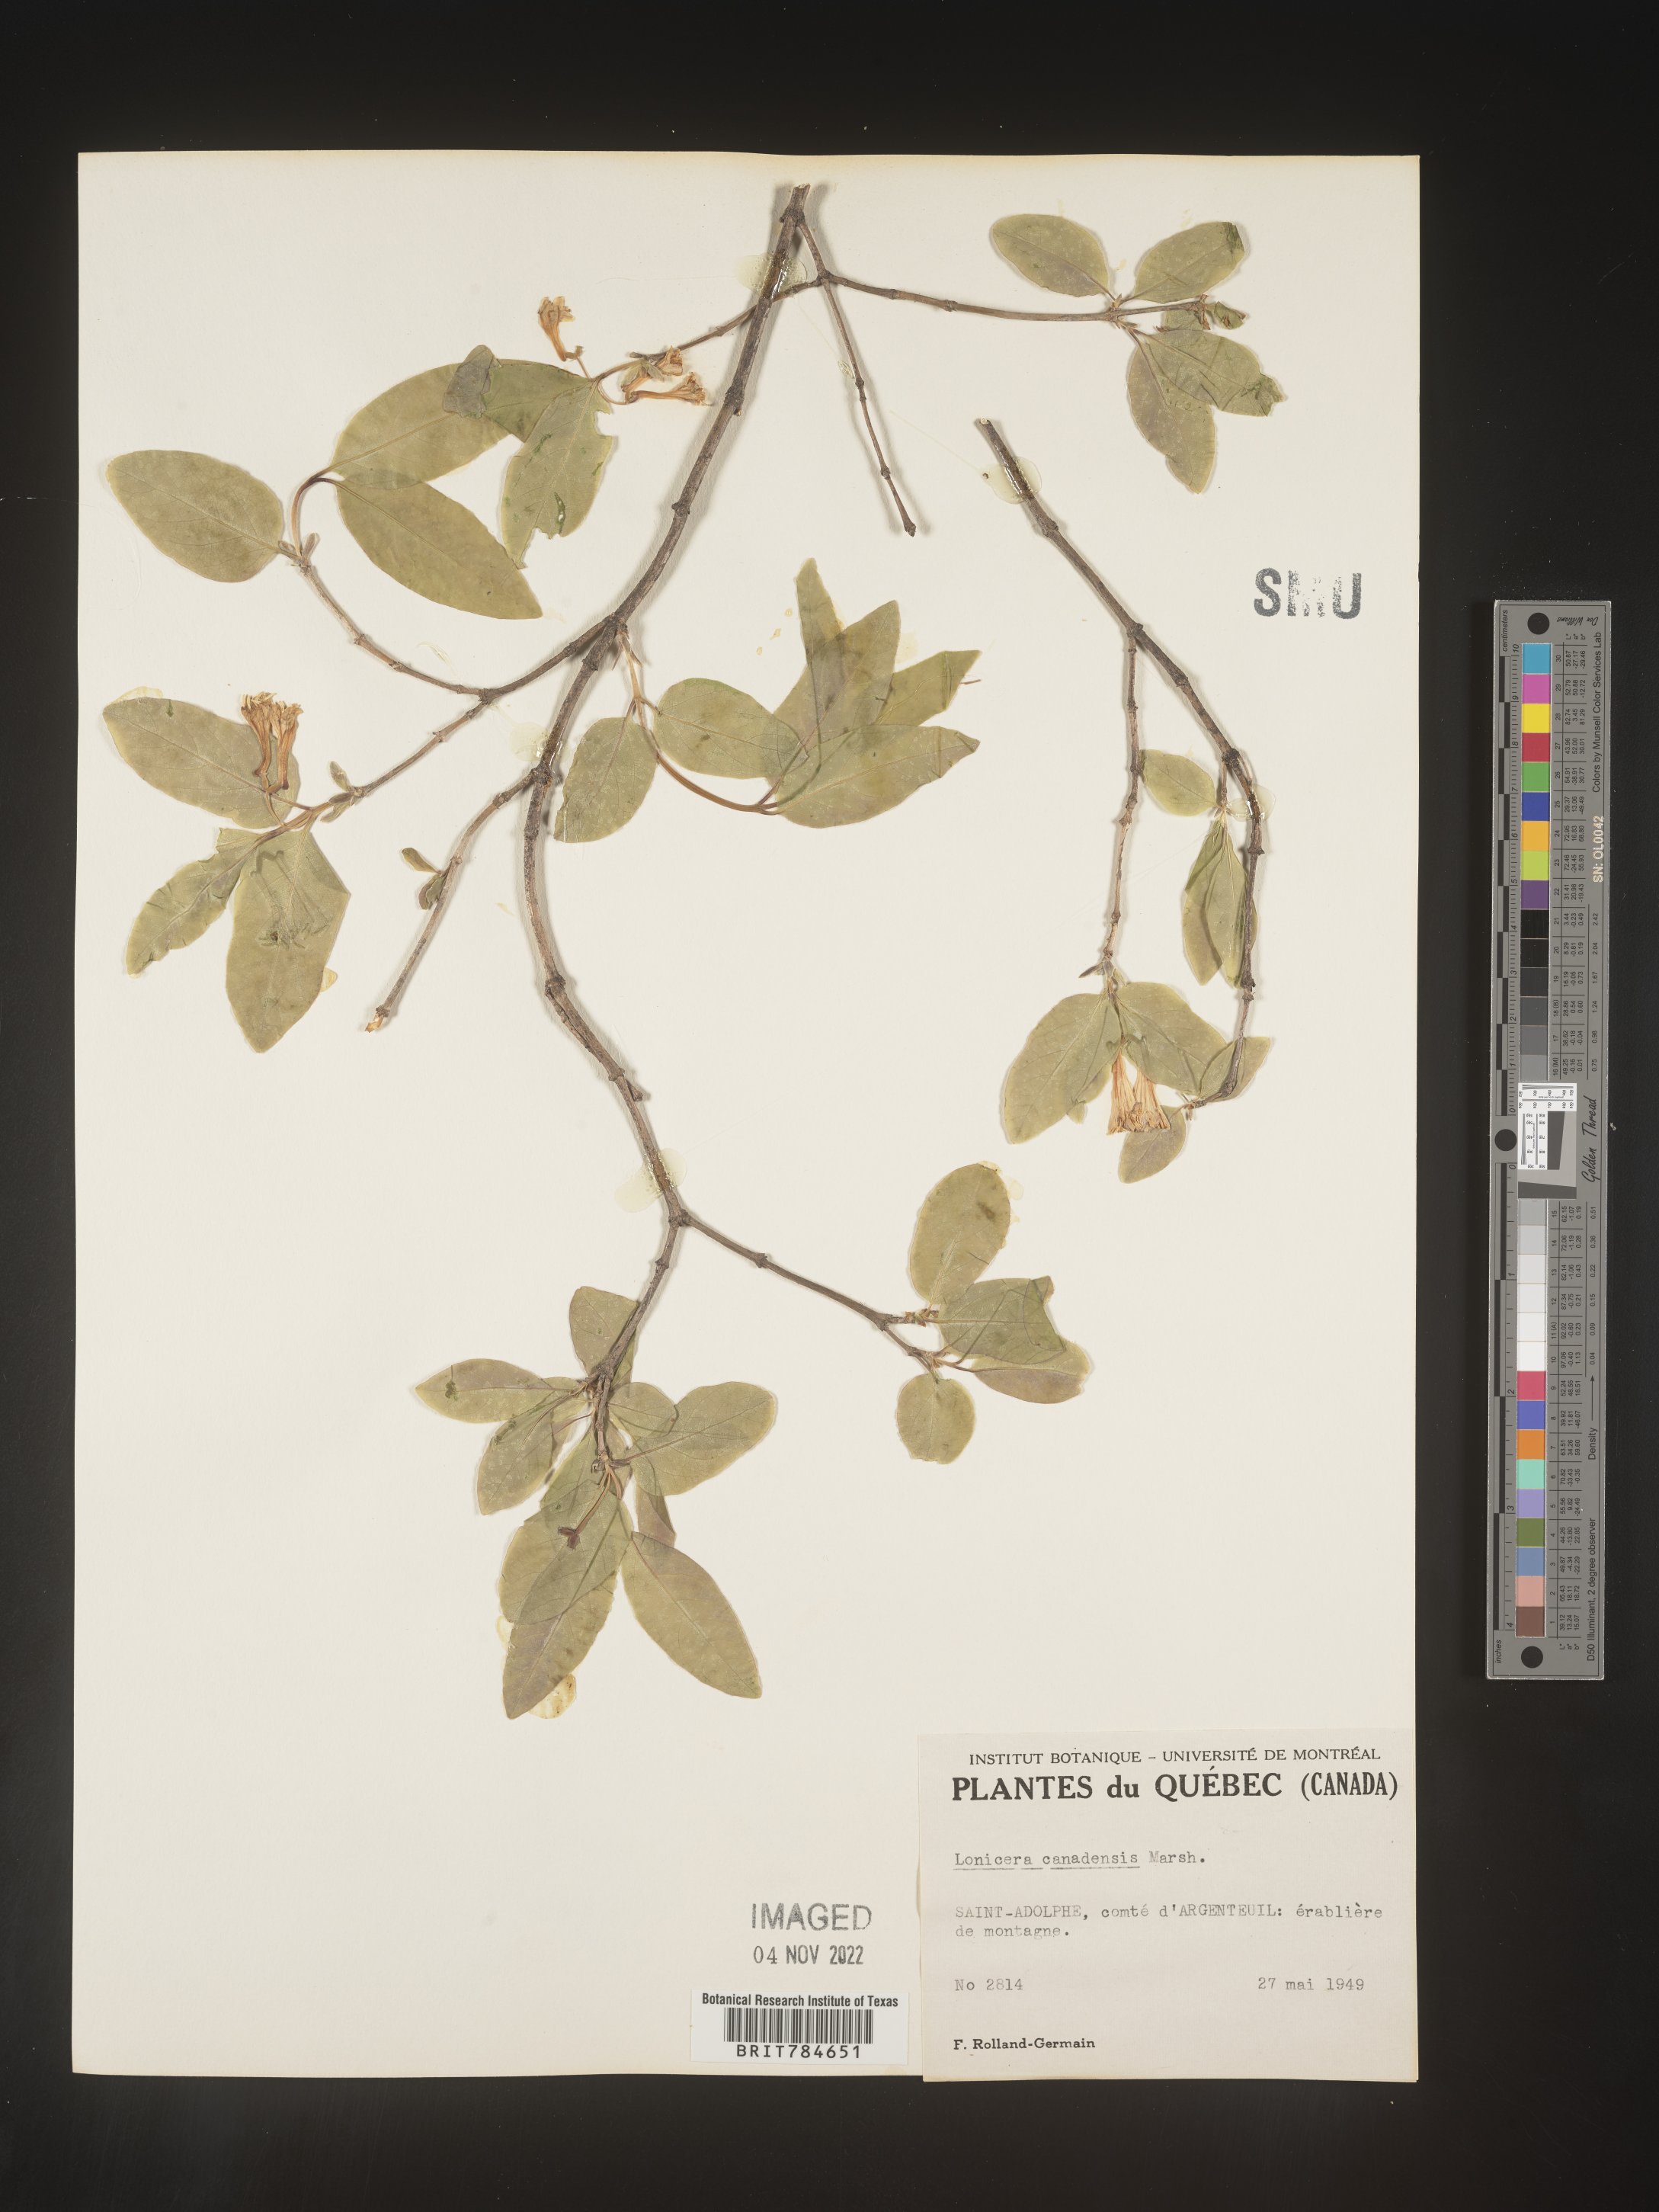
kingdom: Plantae
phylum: Tracheophyta
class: Magnoliopsida
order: Dipsacales
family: Caprifoliaceae
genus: Lonicera
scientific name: Lonicera
